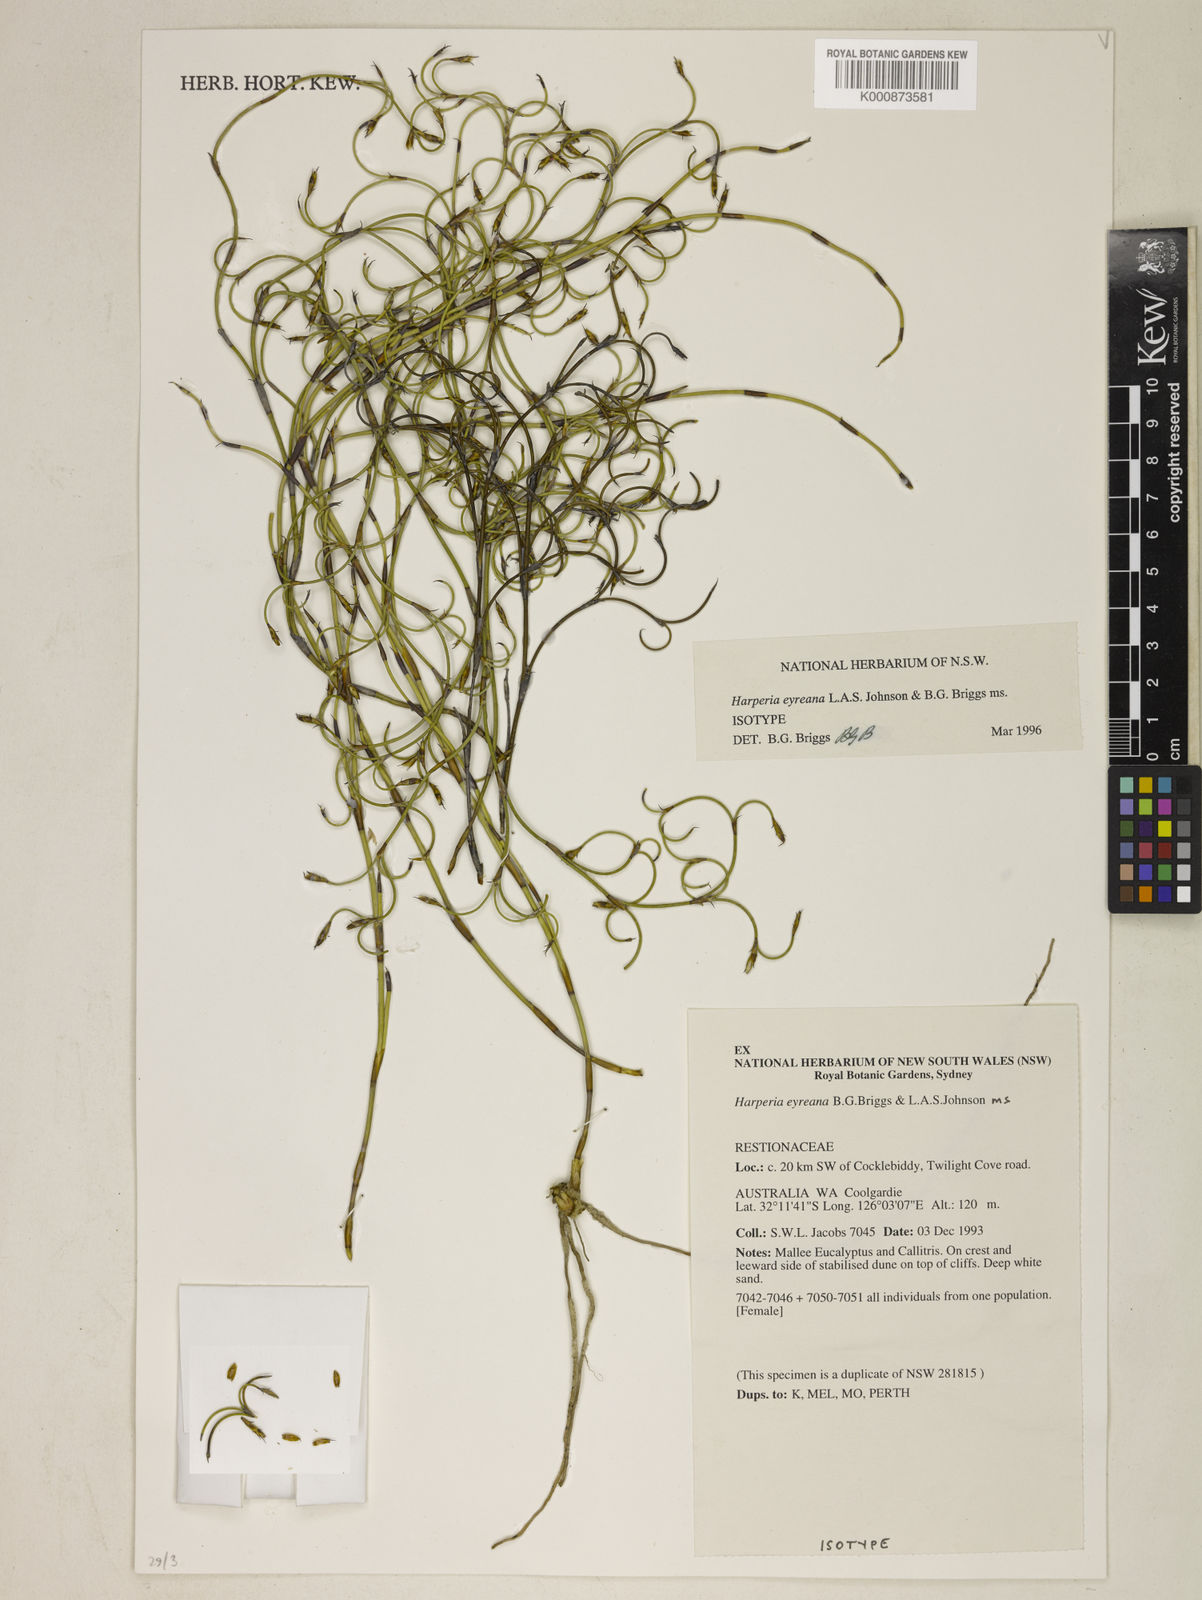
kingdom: Plantae
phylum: Tracheophyta
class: Liliopsida
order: Poales
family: Restionaceae
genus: Desmocladus
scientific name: Desmocladus eyreanus
